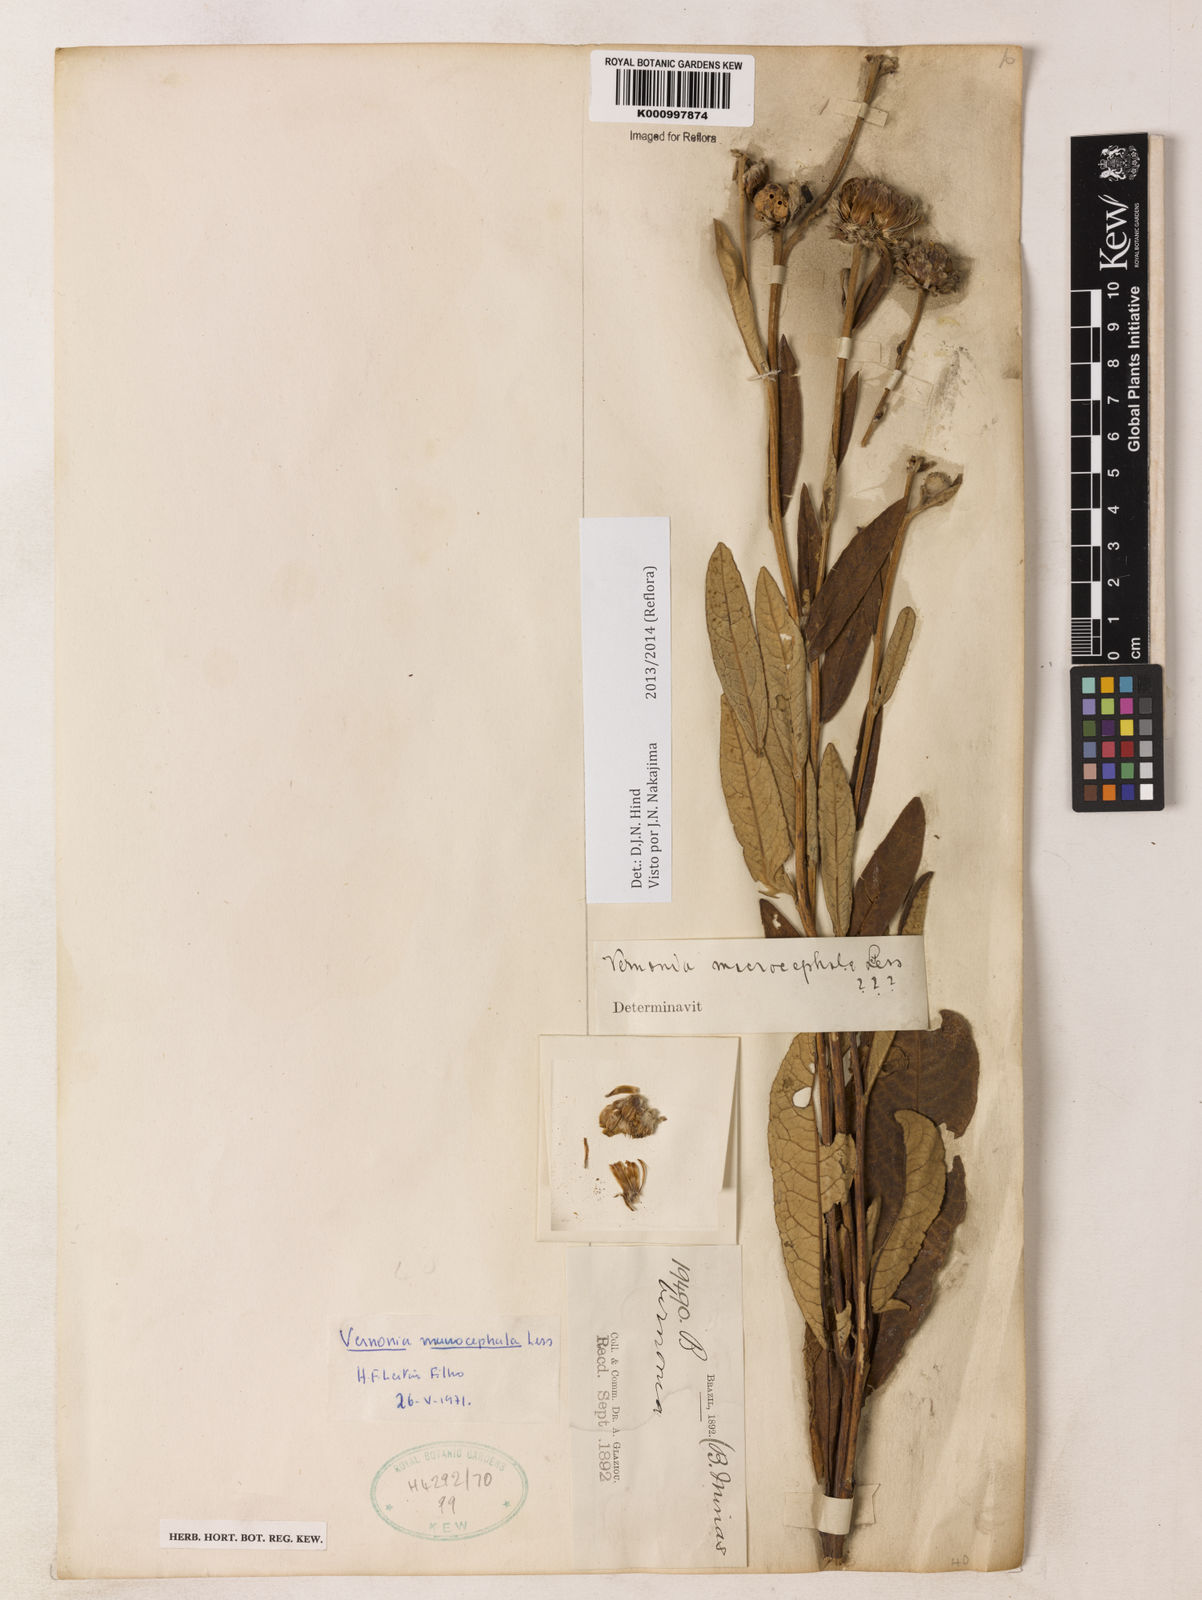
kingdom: Plantae
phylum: Tracheophyta
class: Magnoliopsida
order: Asterales
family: Asteraceae
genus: Lessingianthus
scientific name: Lessingianthus macrocephalus
